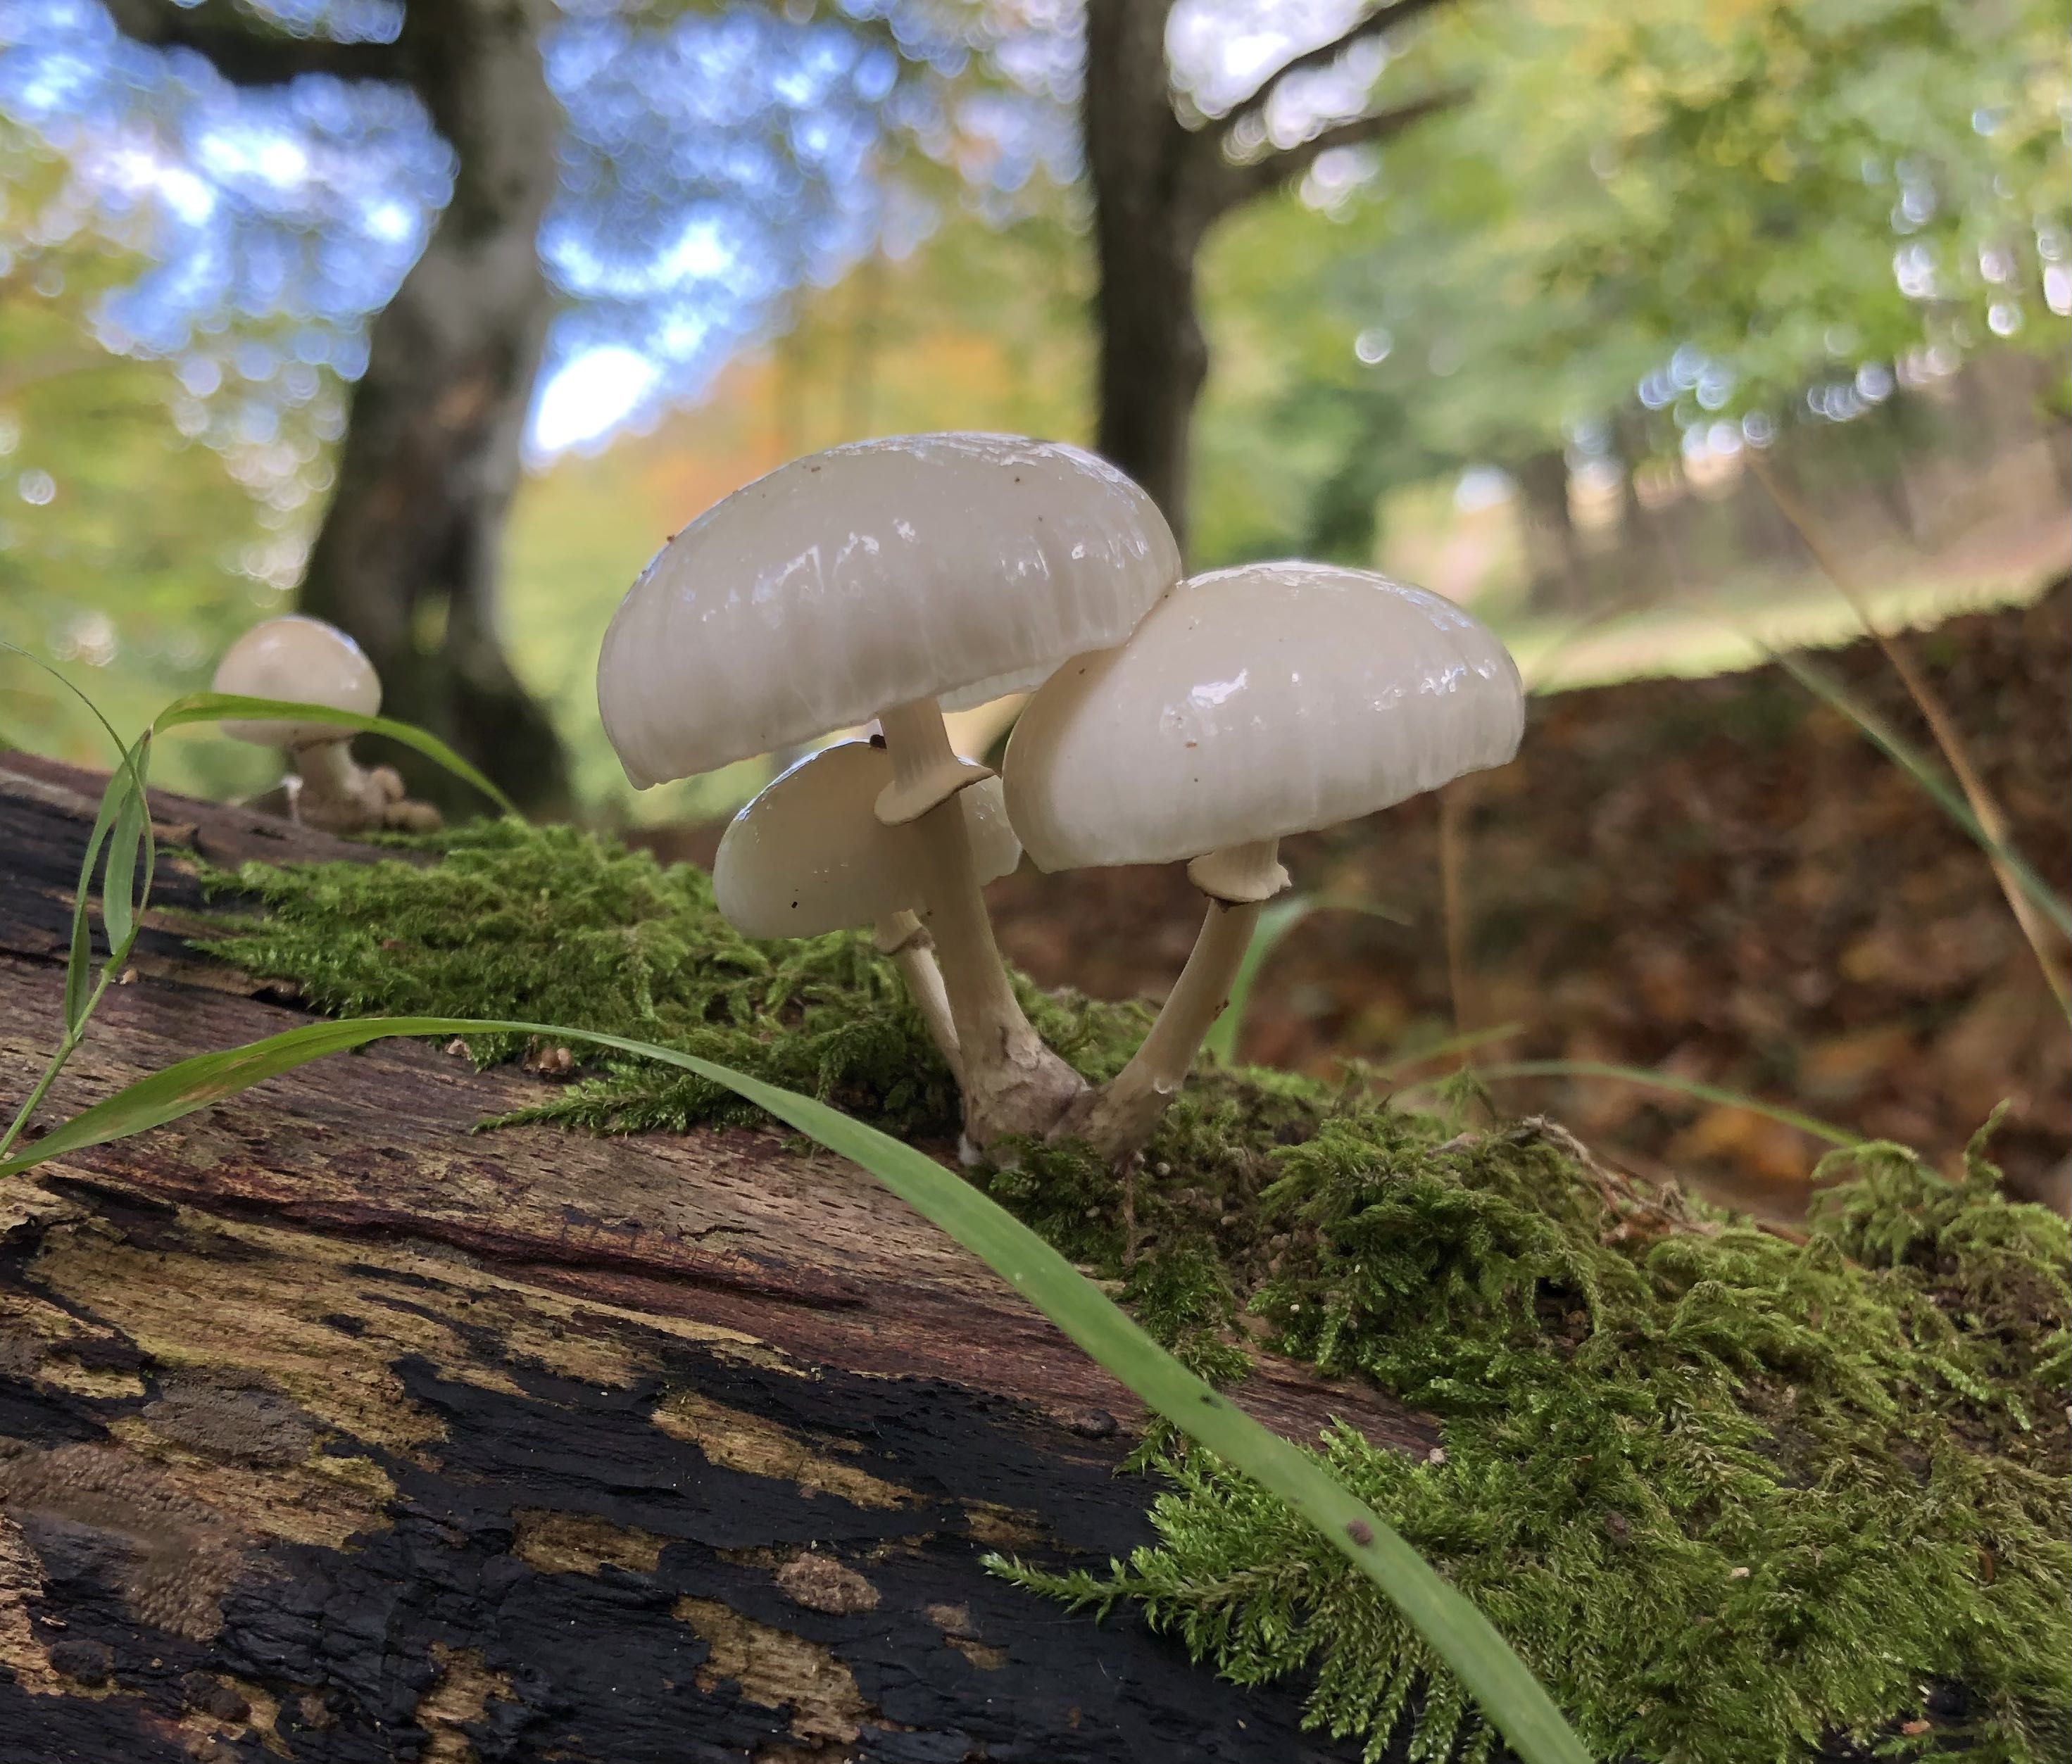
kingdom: Fungi
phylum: Basidiomycota
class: Agaricomycetes
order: Agaricales
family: Physalacriaceae
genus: Mucidula
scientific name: Mucidula mucida
